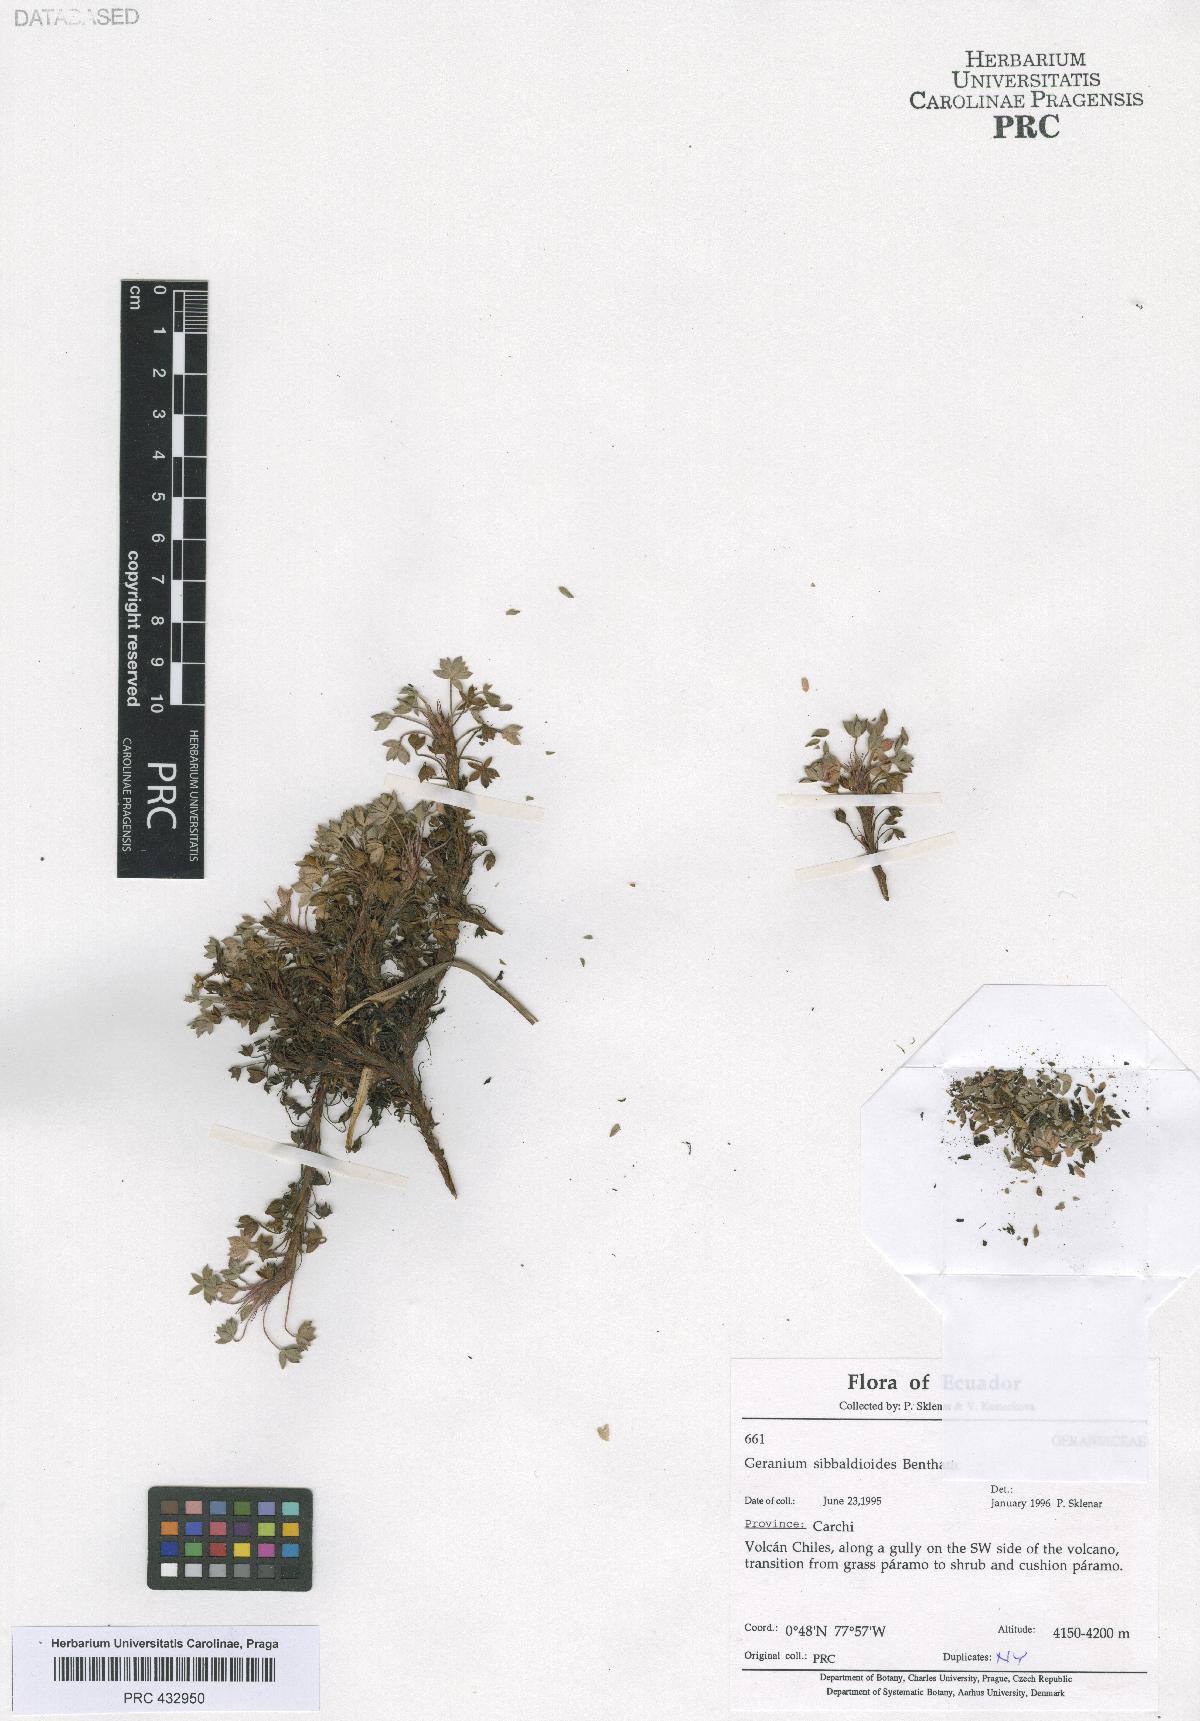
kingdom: Plantae
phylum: Tracheophyta
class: Magnoliopsida
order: Geraniales
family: Geraniaceae
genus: Geranium
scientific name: Geranium sibbaldioides
